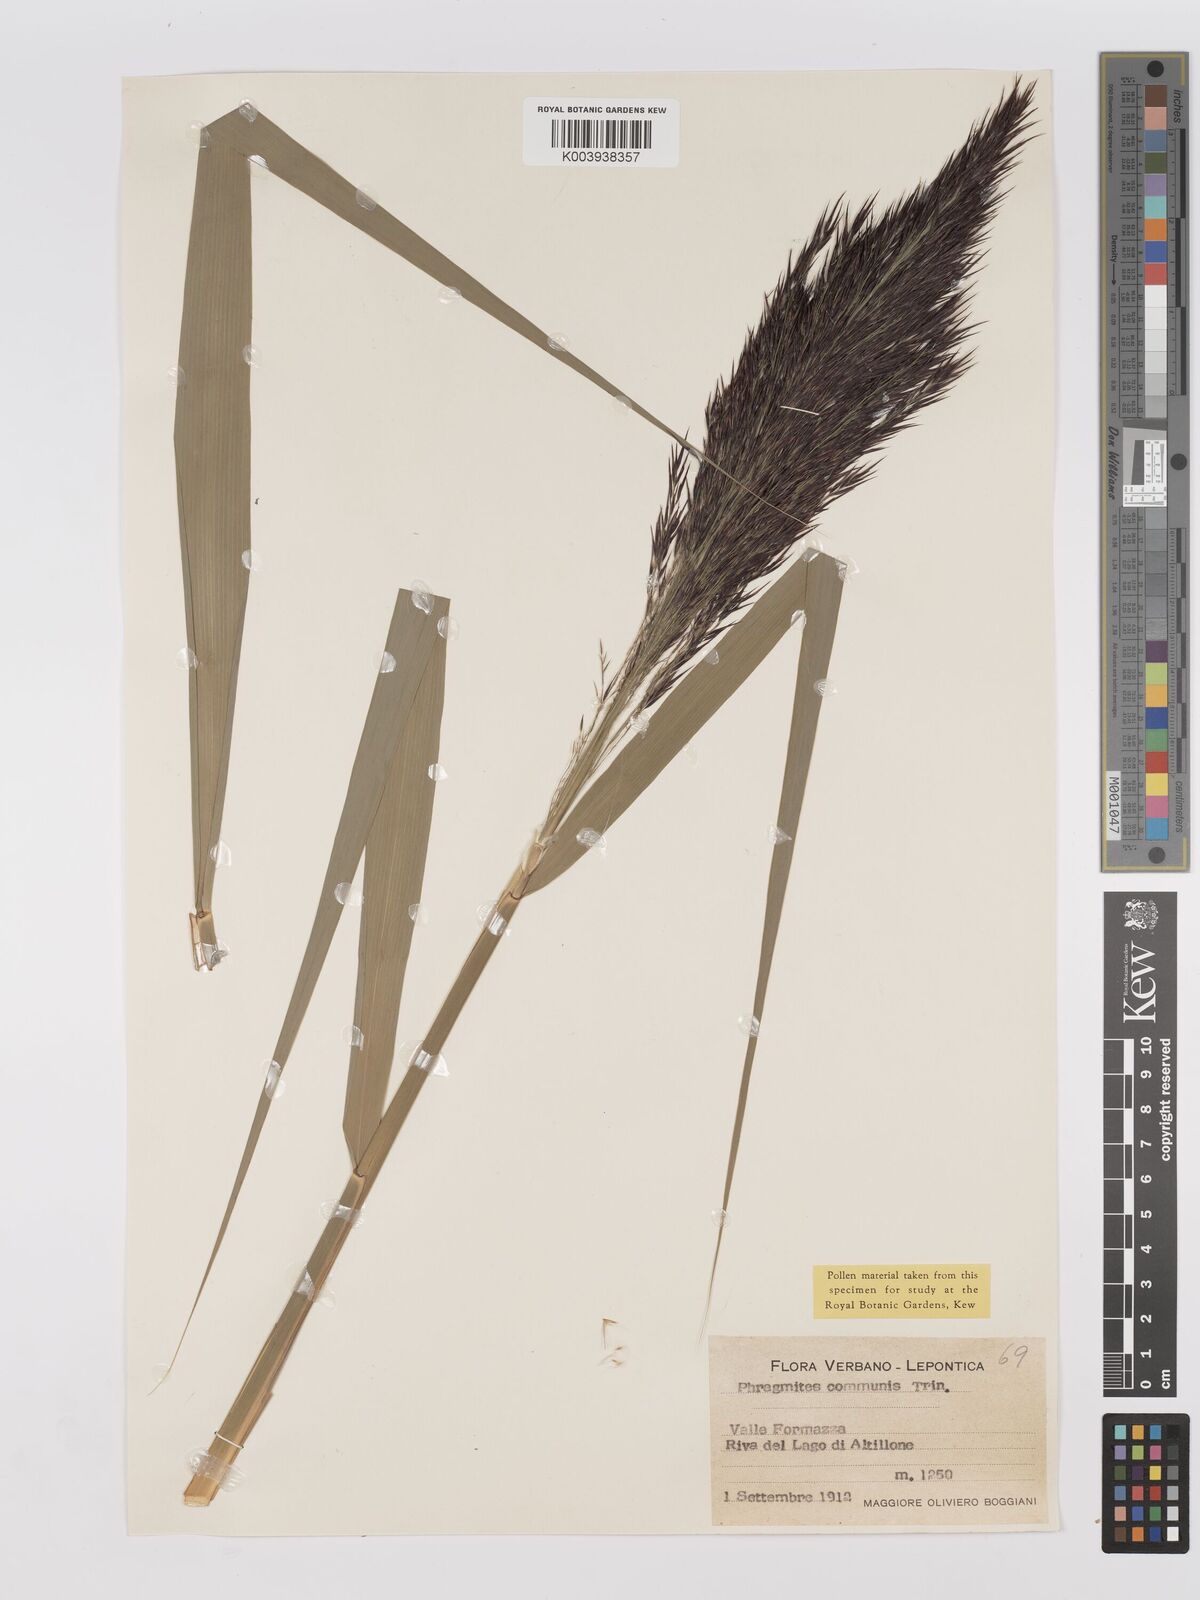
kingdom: Plantae
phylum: Tracheophyta
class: Liliopsida
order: Poales
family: Poaceae
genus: Phragmites
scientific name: Phragmites australis
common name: Common reed
